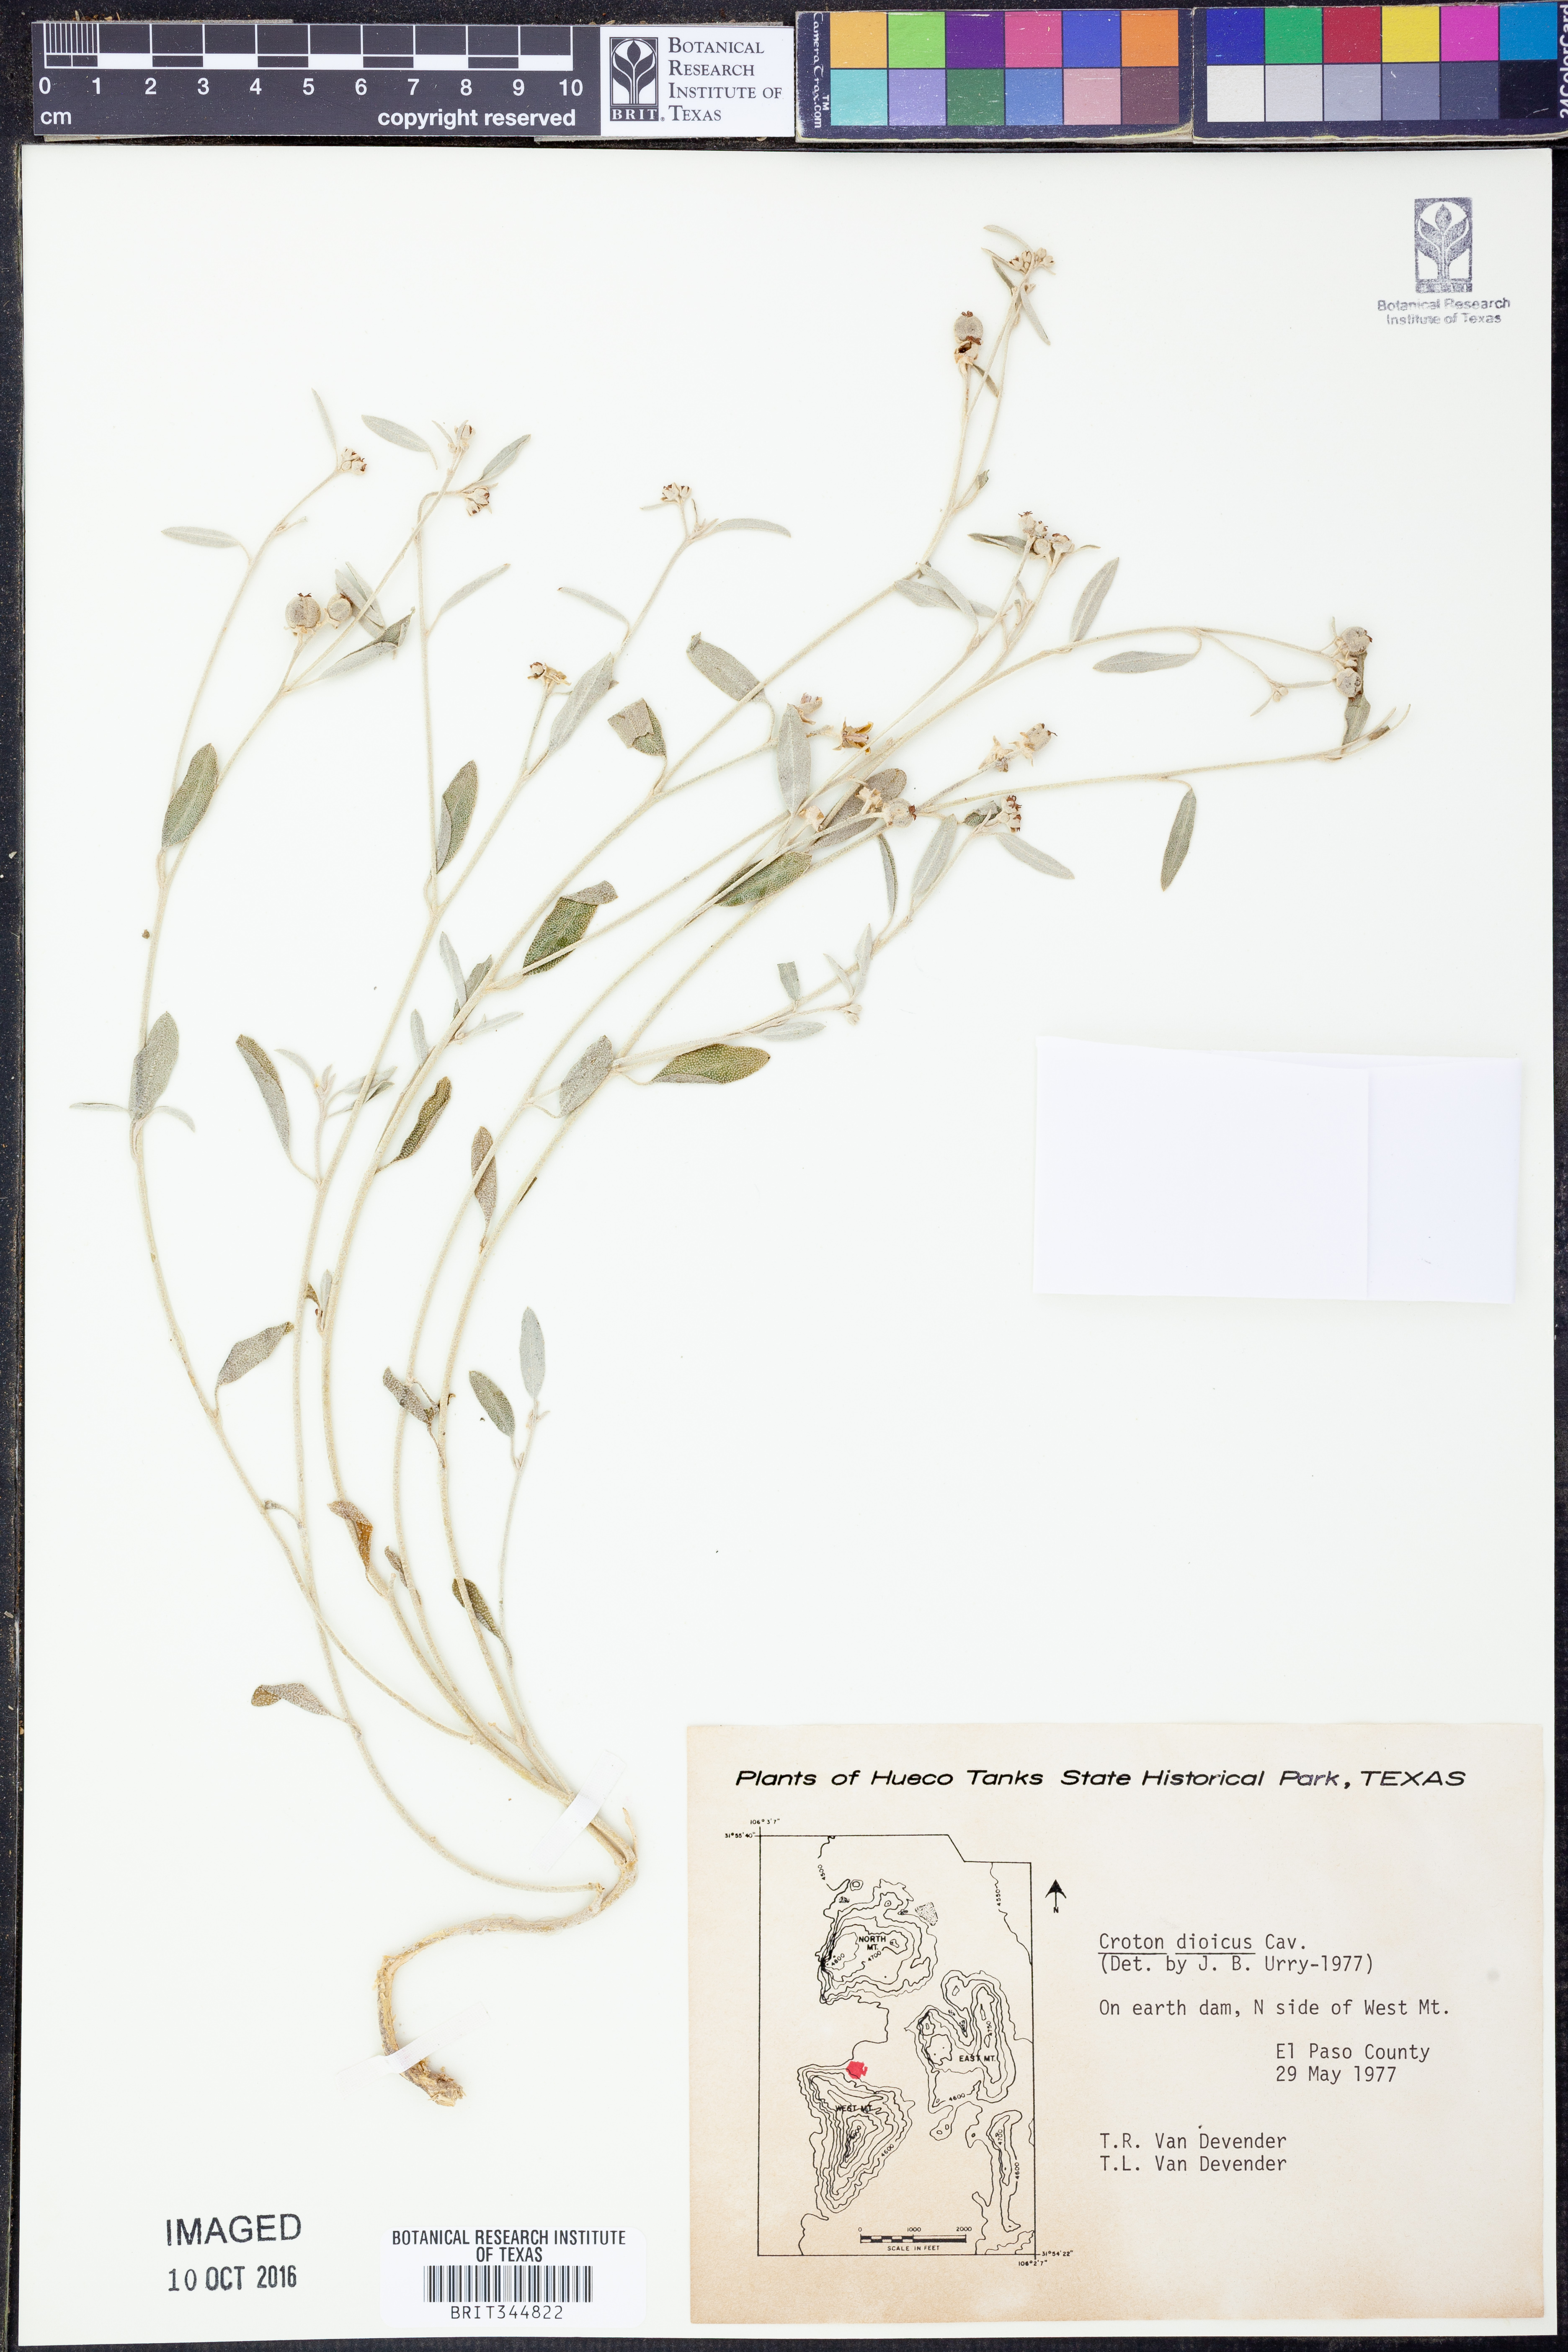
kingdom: Plantae
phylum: Tracheophyta
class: Magnoliopsida
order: Malpighiales
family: Euphorbiaceae
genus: Croton
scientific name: Croton dioicus
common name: Grassland croton
